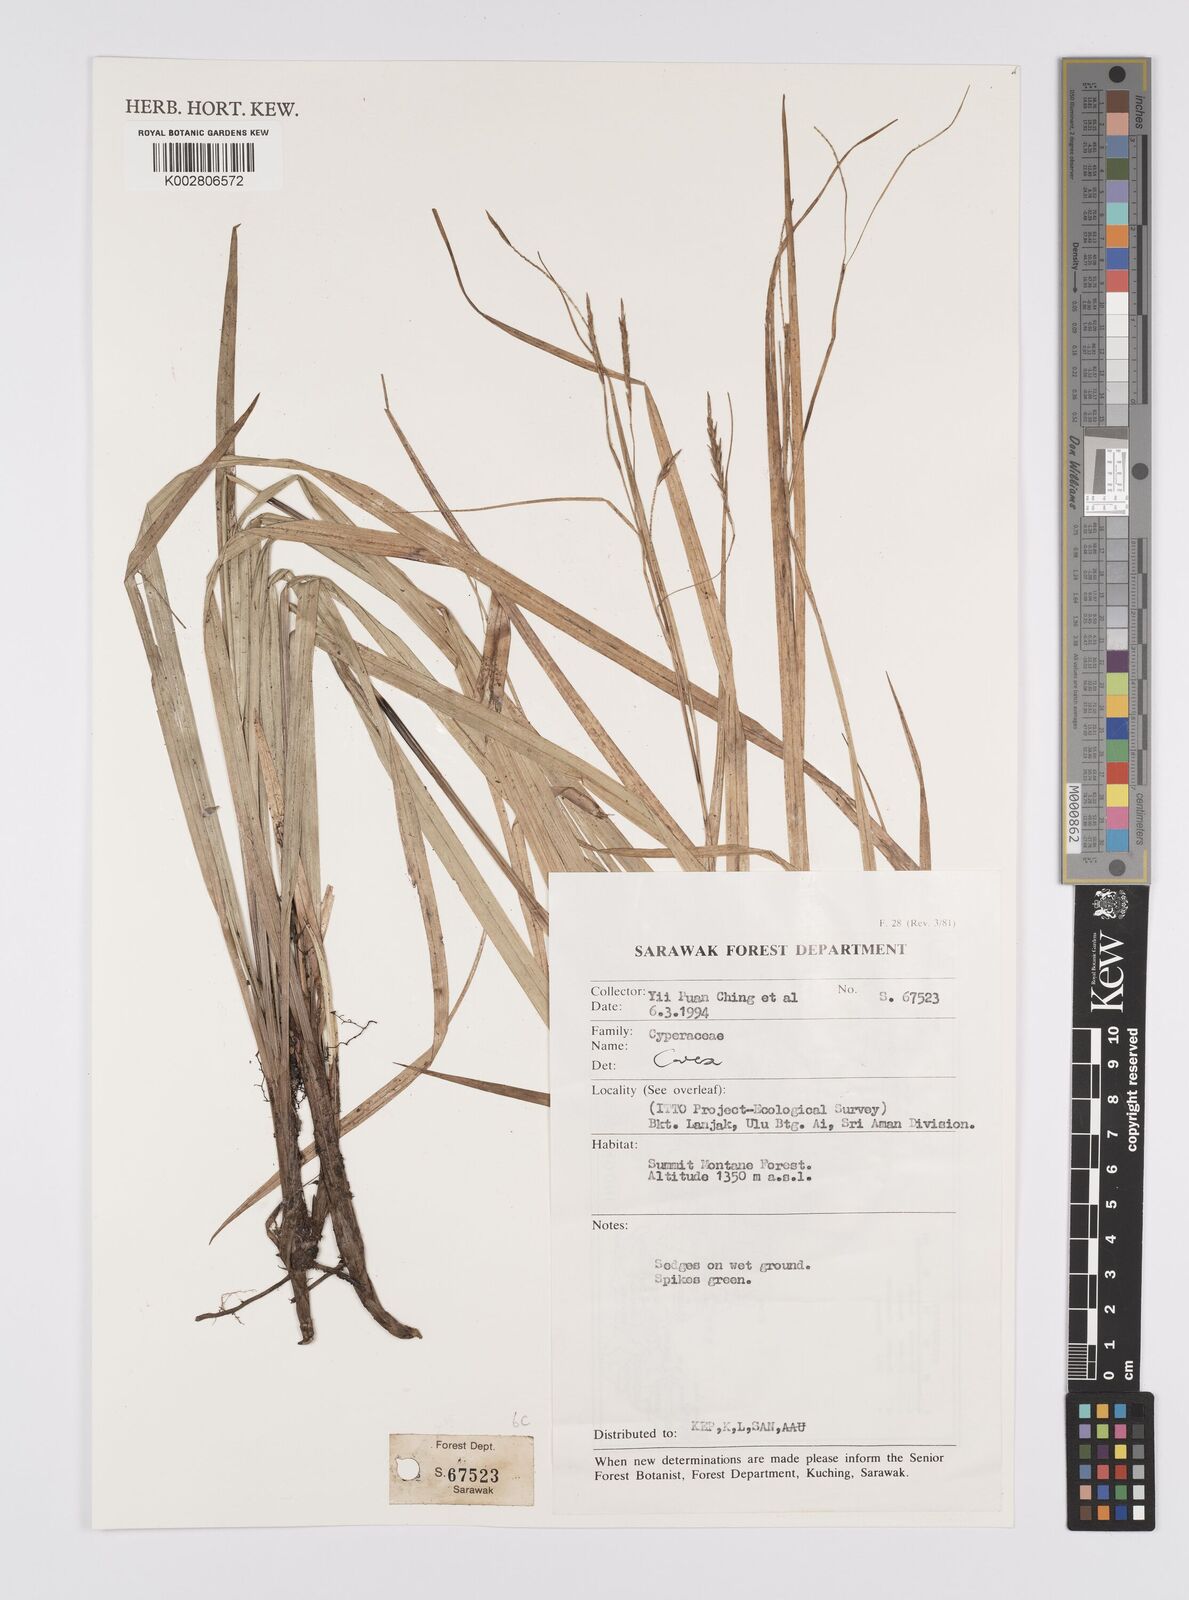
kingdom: Plantae
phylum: Tracheophyta
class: Liliopsida
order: Poales
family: Cyperaceae
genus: Carex
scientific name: Carex
